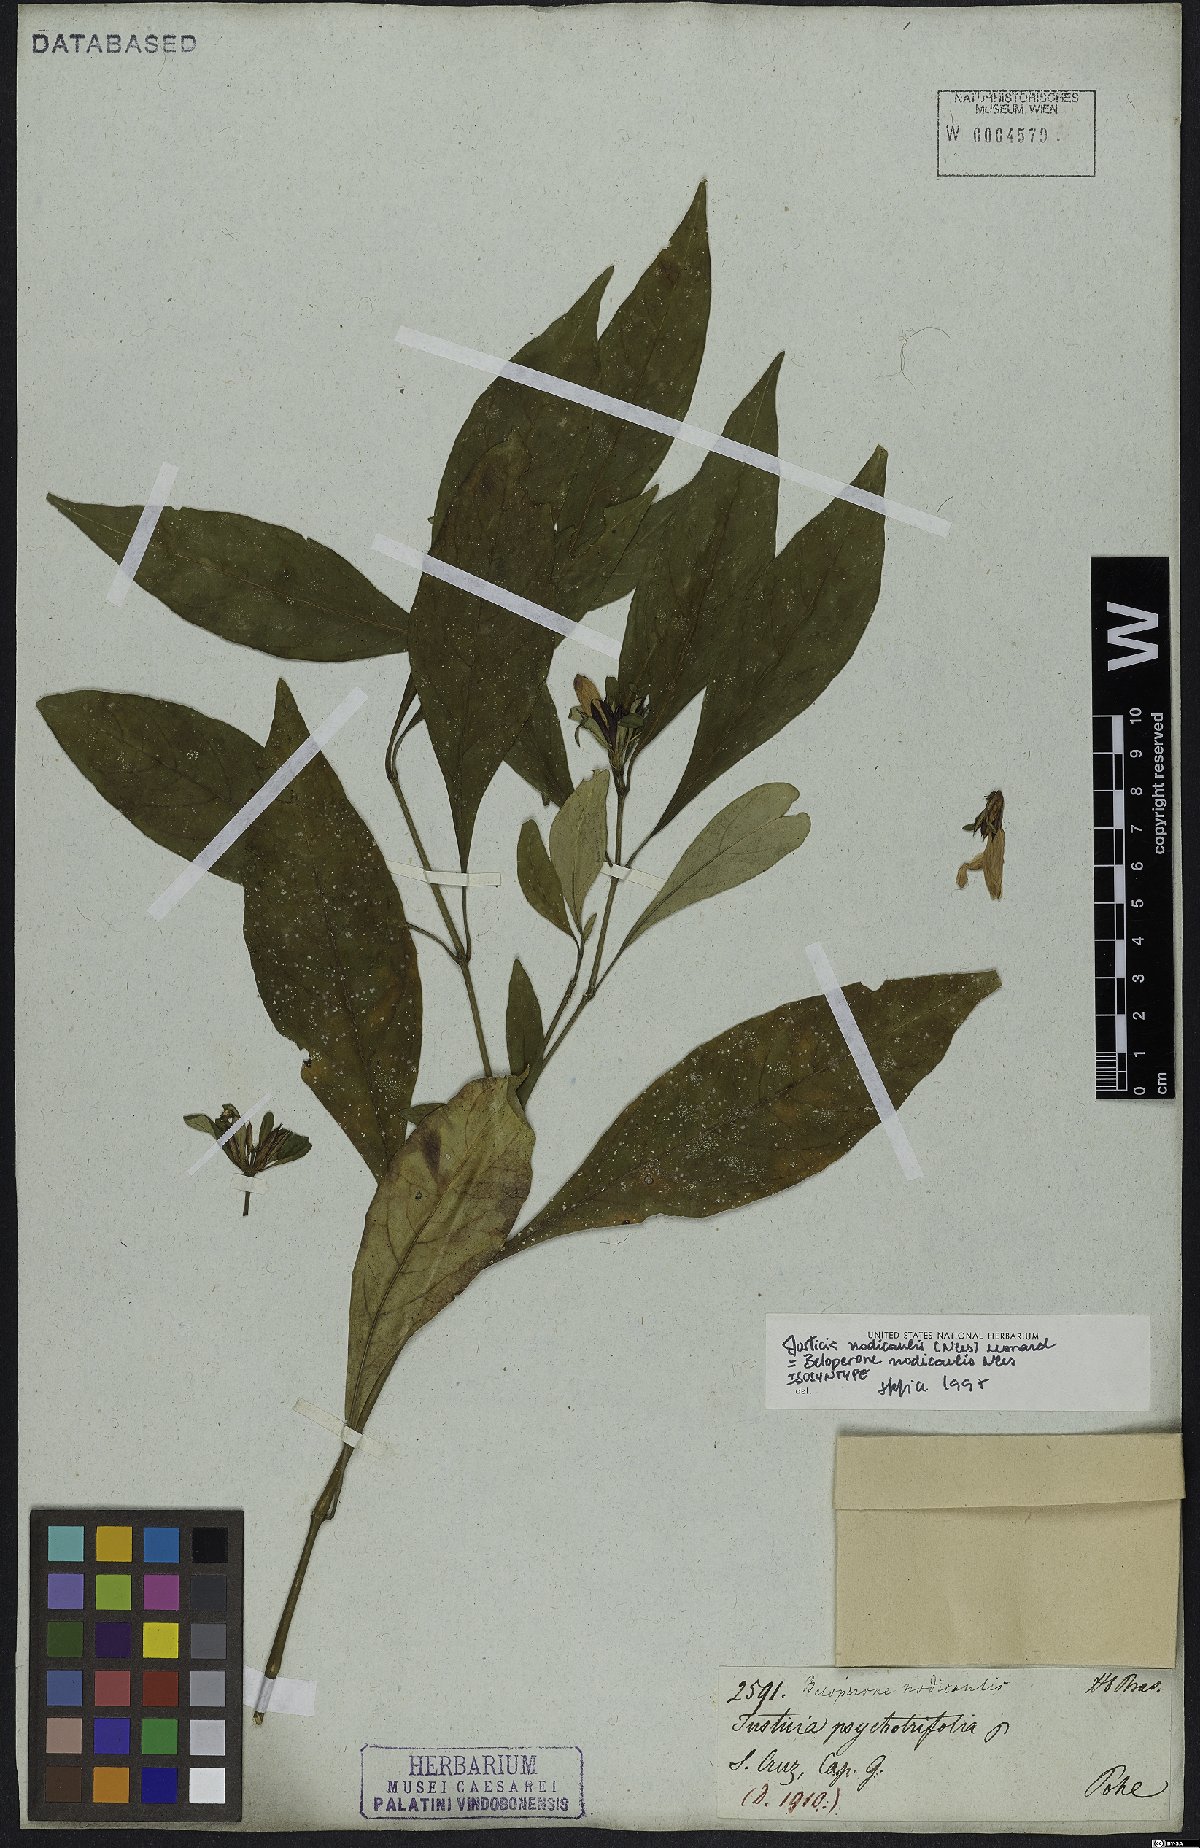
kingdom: Plantae
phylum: Tracheophyta
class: Magnoliopsida
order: Lamiales
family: Acanthaceae
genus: Justicia
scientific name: Justicia nodicaulis
